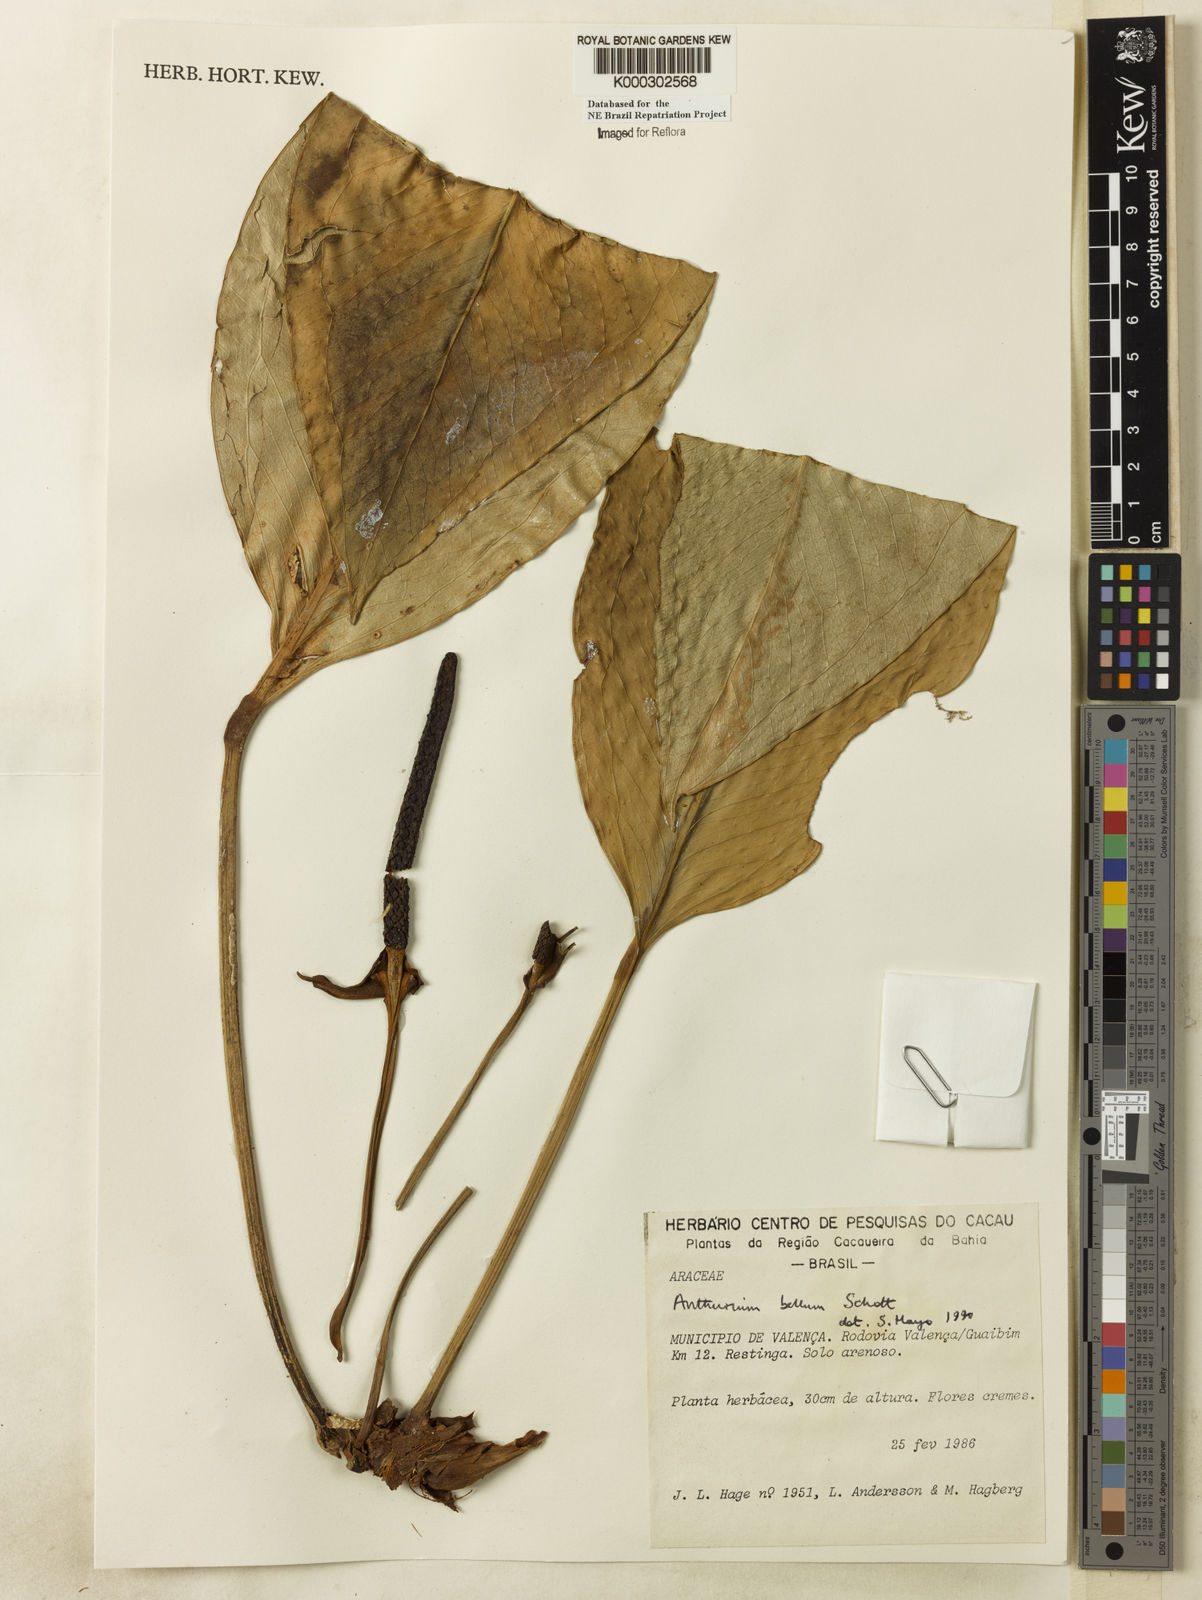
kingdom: Plantae
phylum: Tracheophyta
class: Liliopsida
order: Alismatales
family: Araceae
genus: Anthurium
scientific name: Anthurium bellum
